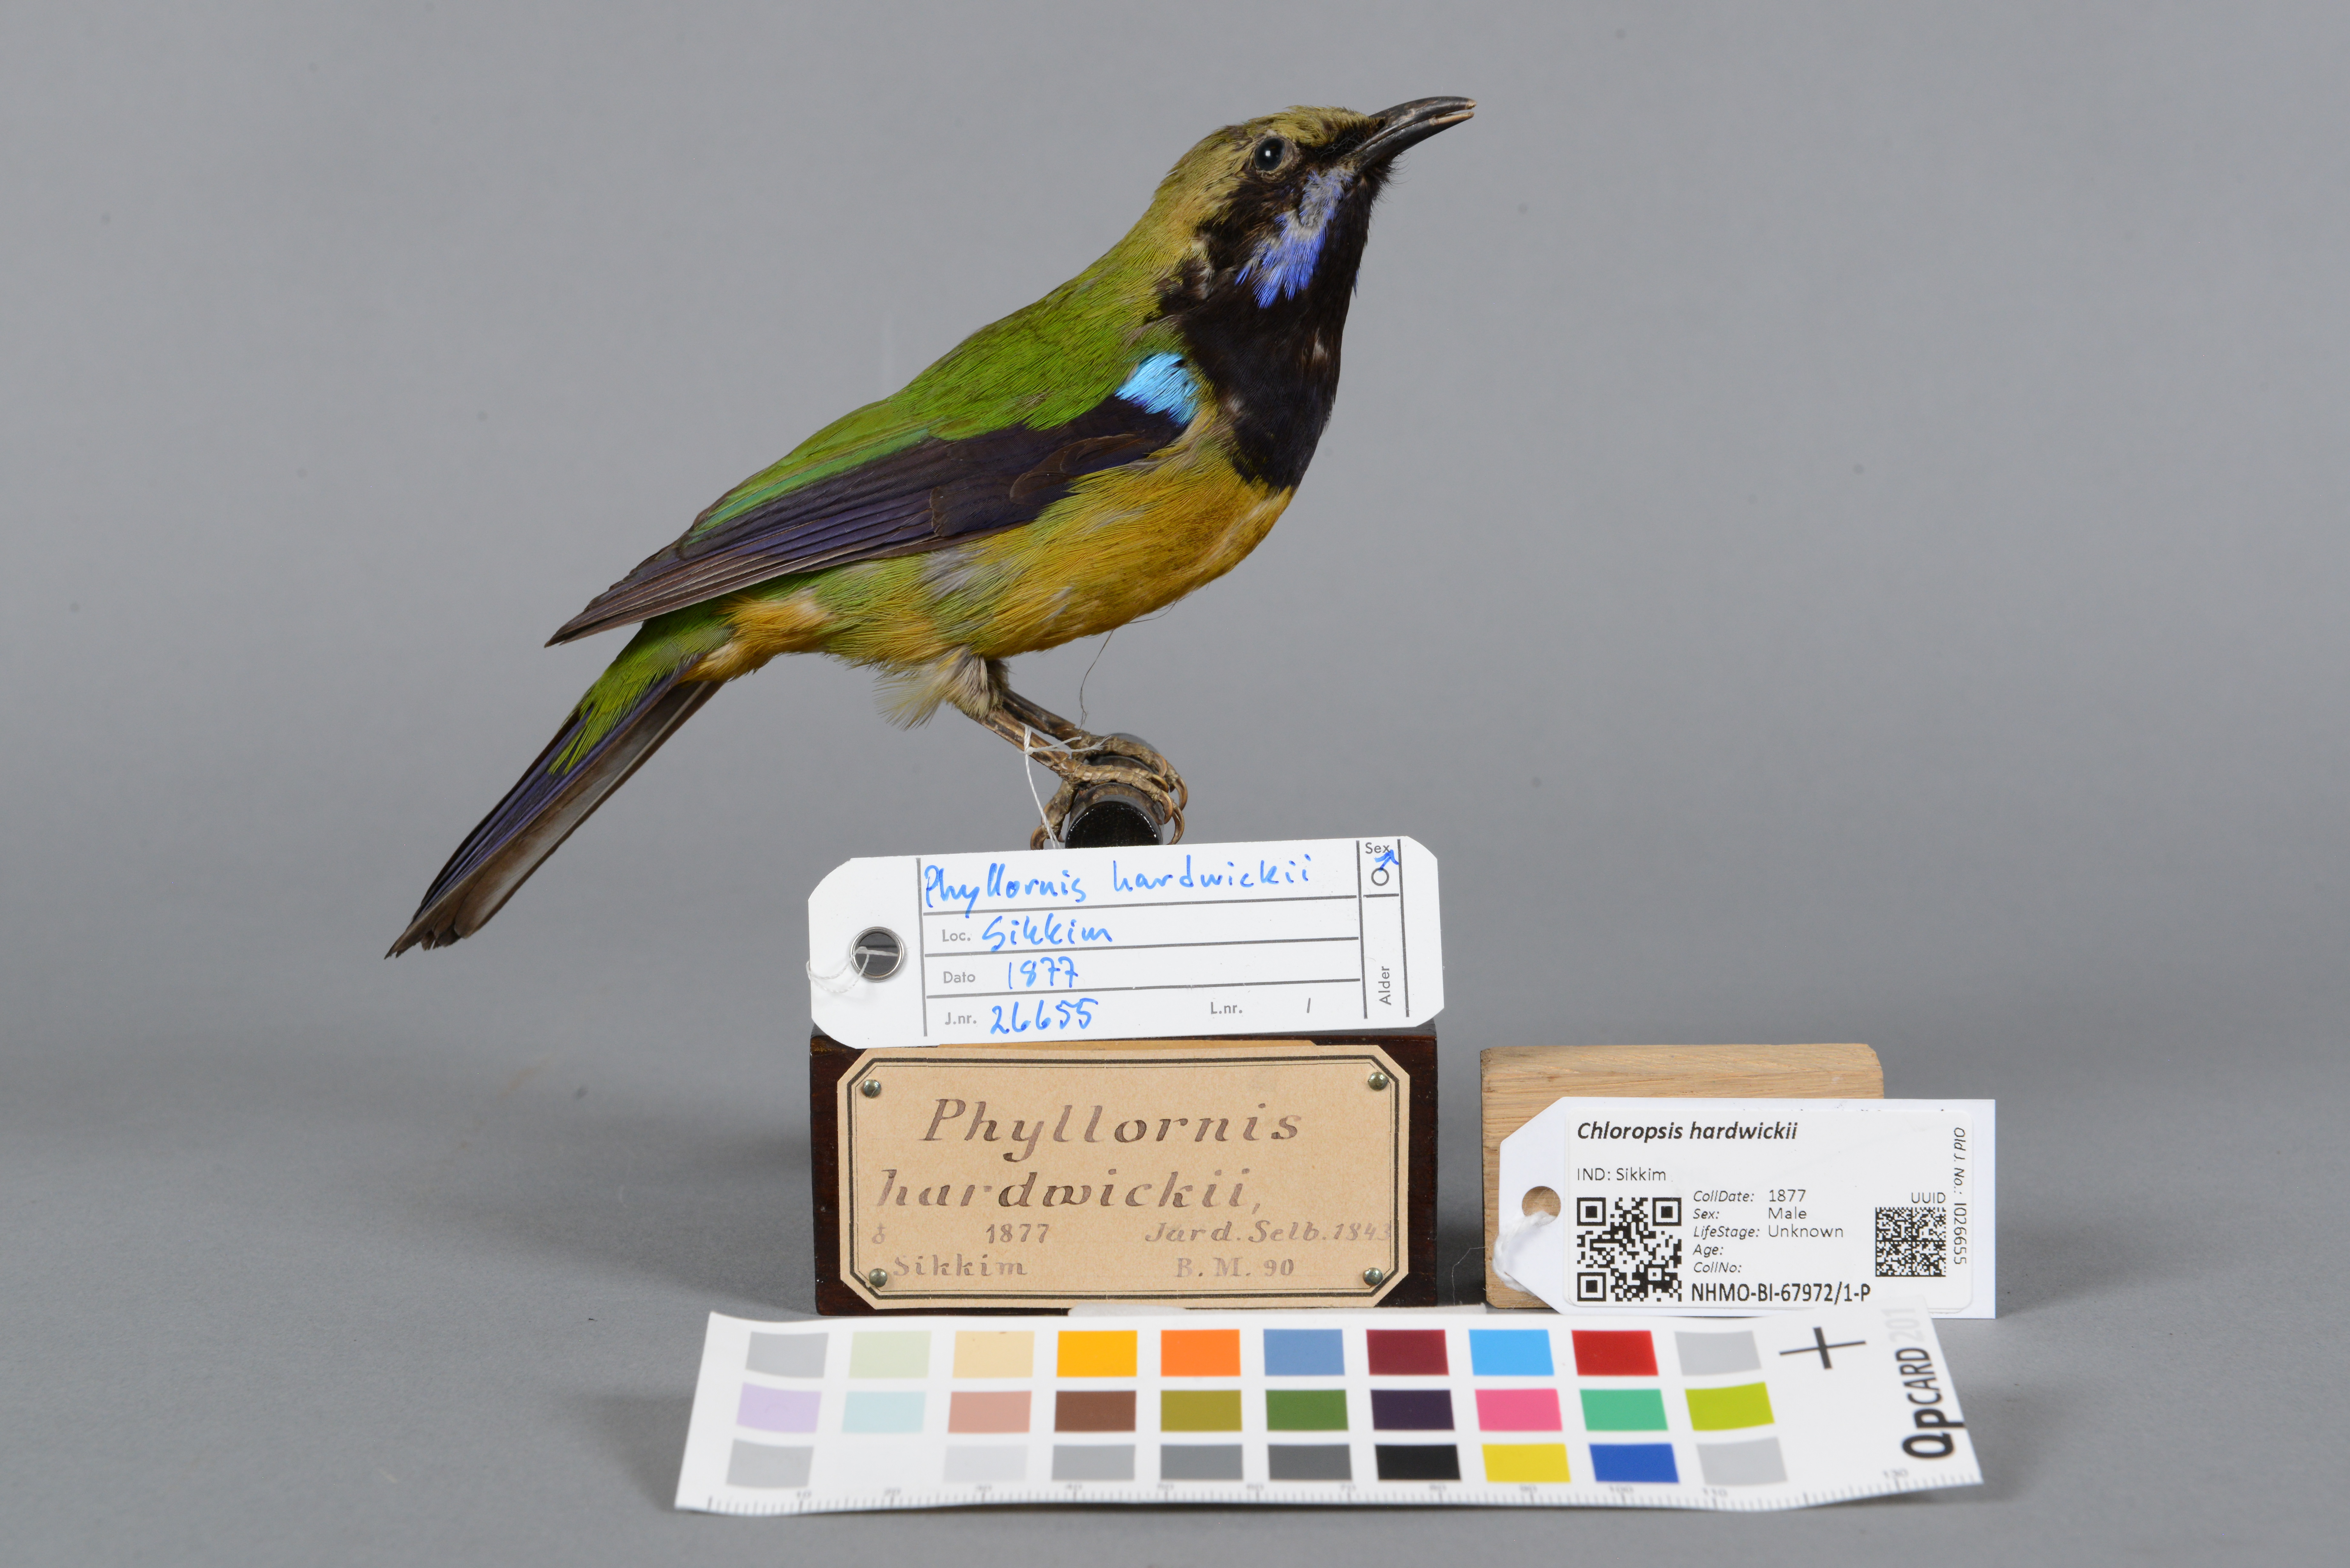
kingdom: Animalia
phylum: Chordata
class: Aves
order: Passeriformes
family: Chloropseidae
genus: Chloropsis
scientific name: Chloropsis hardwickii
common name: Orange-bellied leafbird
